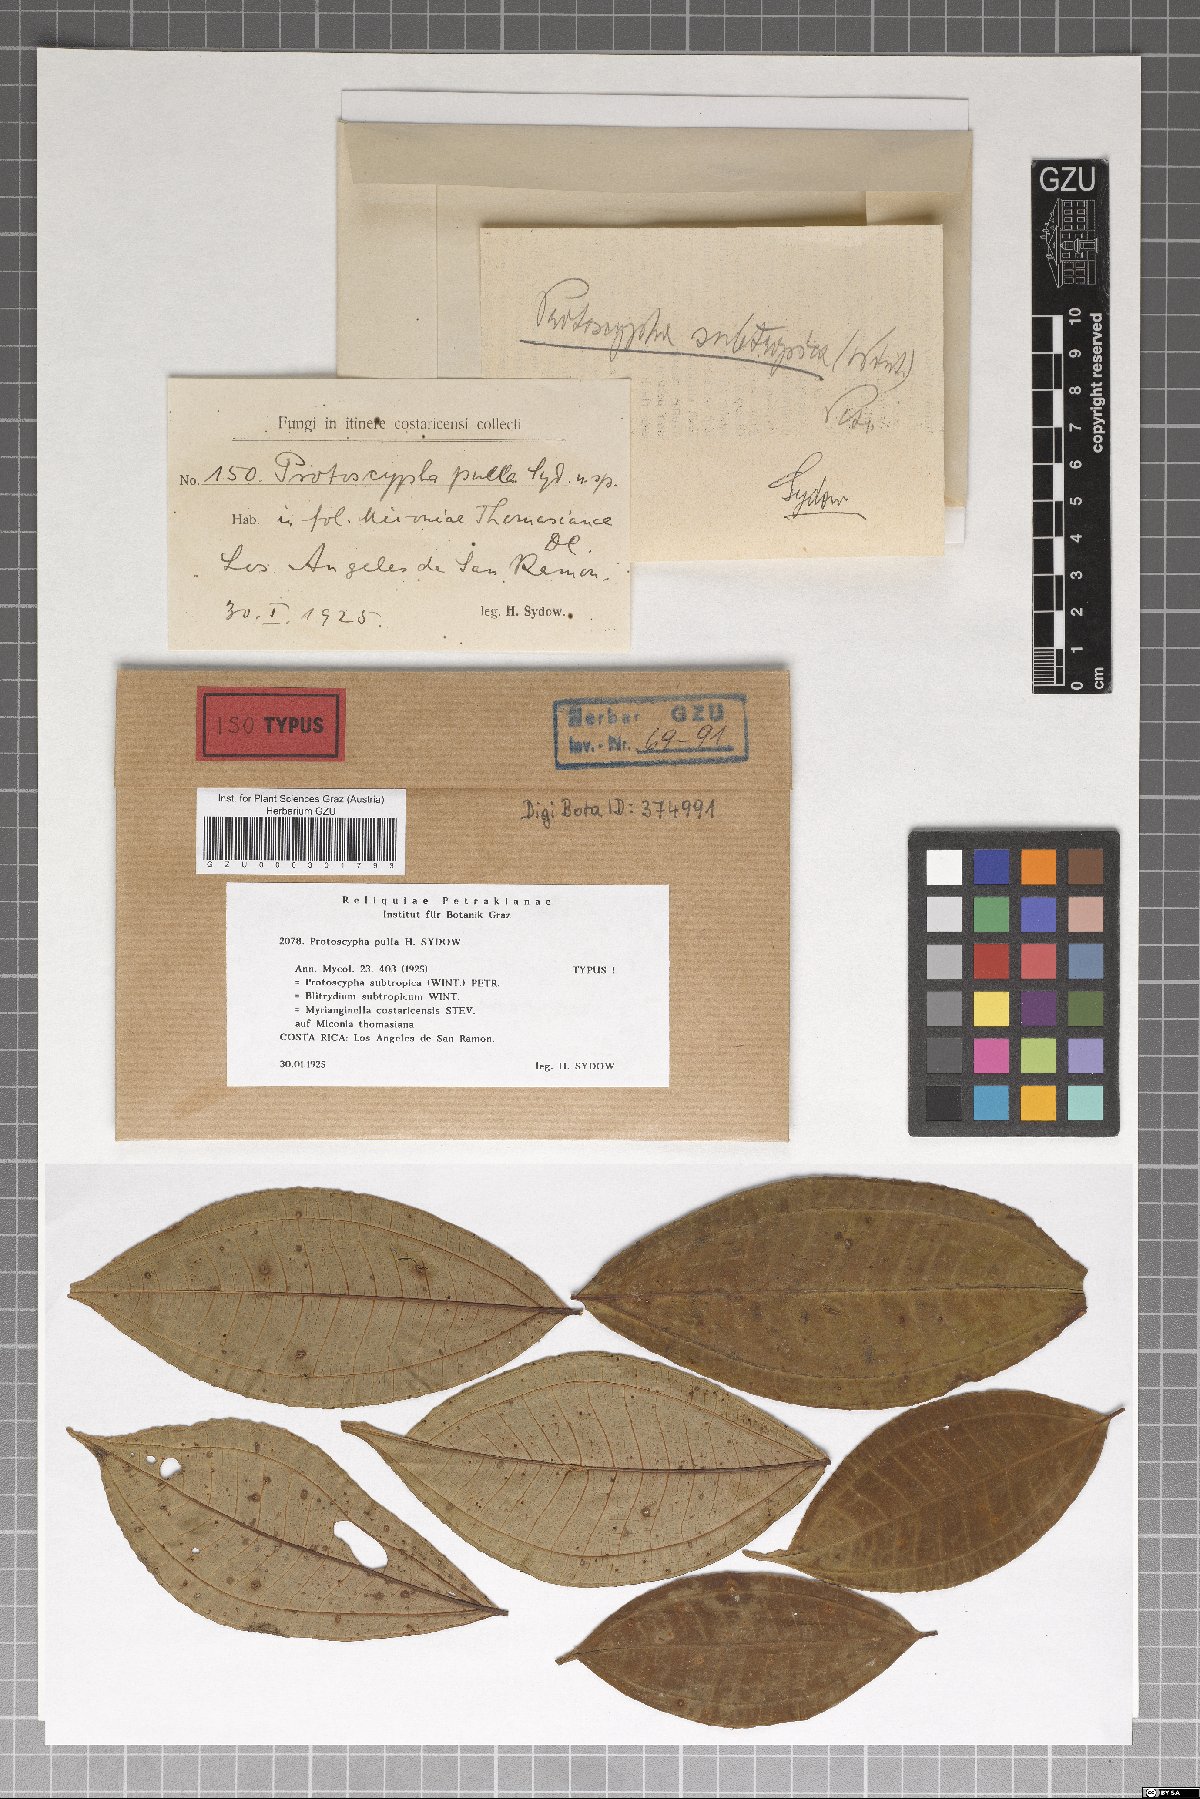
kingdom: Fungi
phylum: Ascomycota
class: Dothideomycetes
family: Protoscyphaceae
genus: Protoscypha
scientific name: Protoscypha pulla
